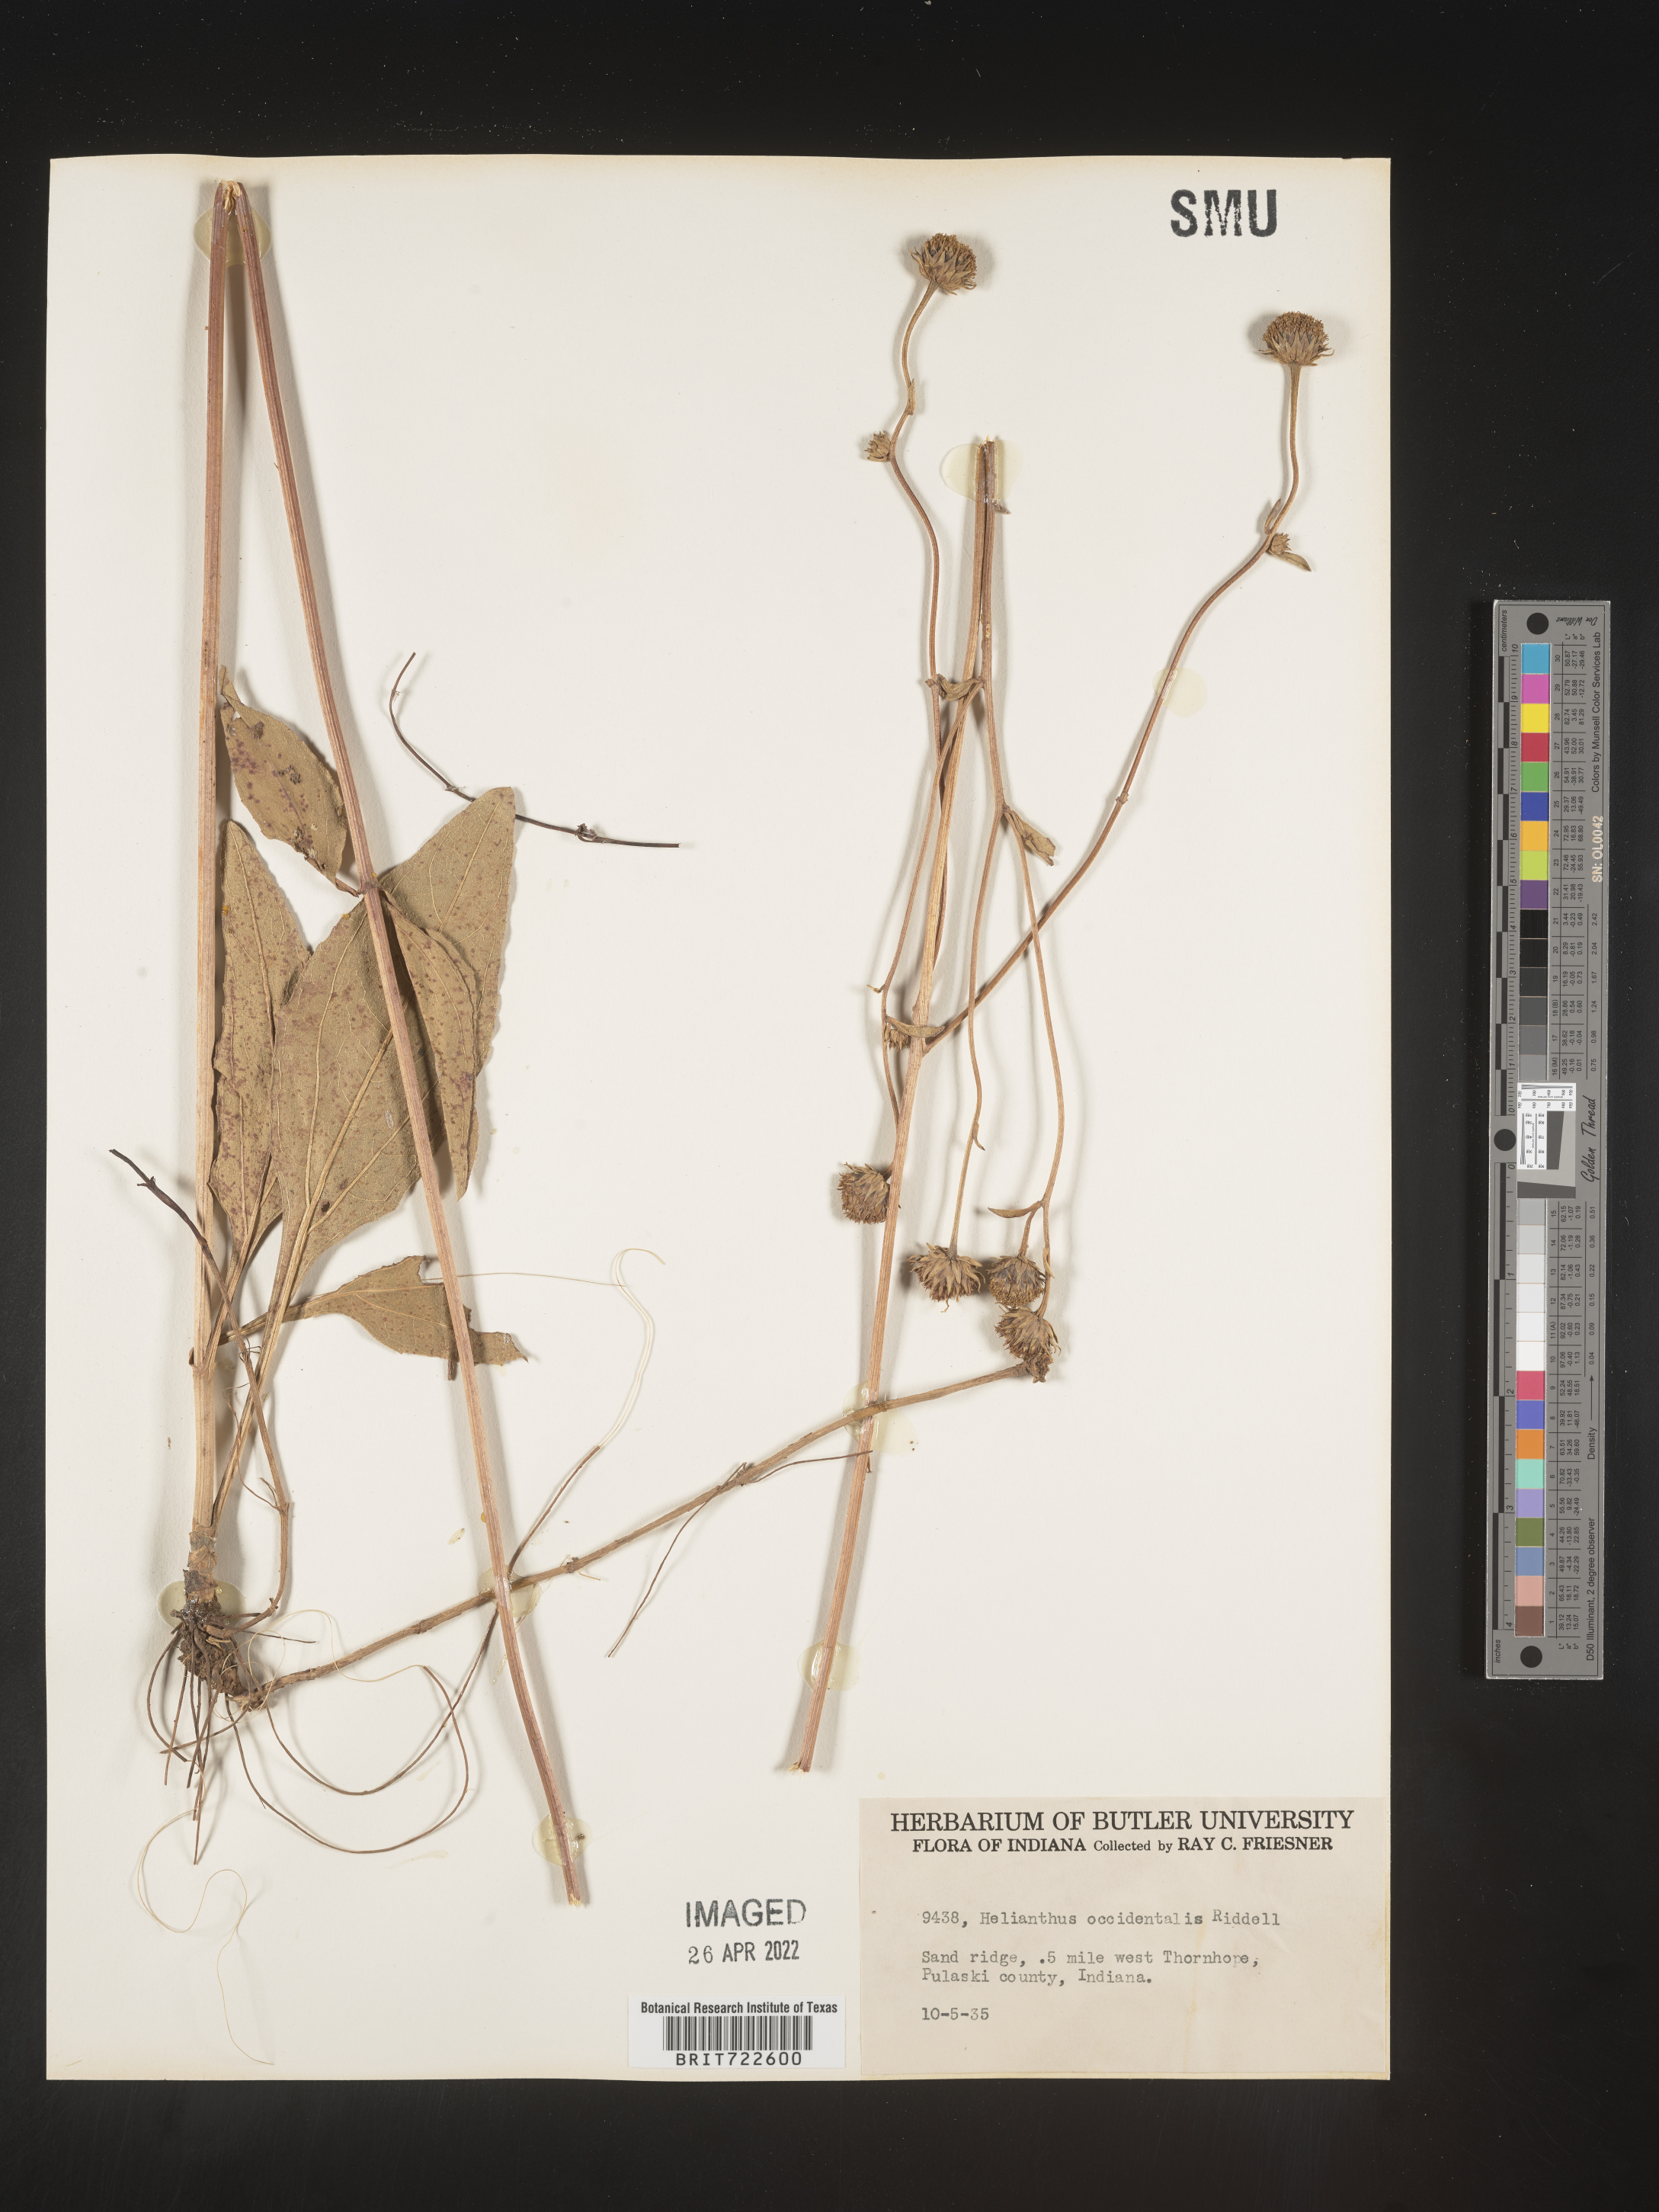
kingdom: Plantae
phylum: Tracheophyta
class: Magnoliopsida
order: Asterales
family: Asteraceae
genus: Helianthus
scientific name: Helianthus occidentalis
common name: Western sunflower
